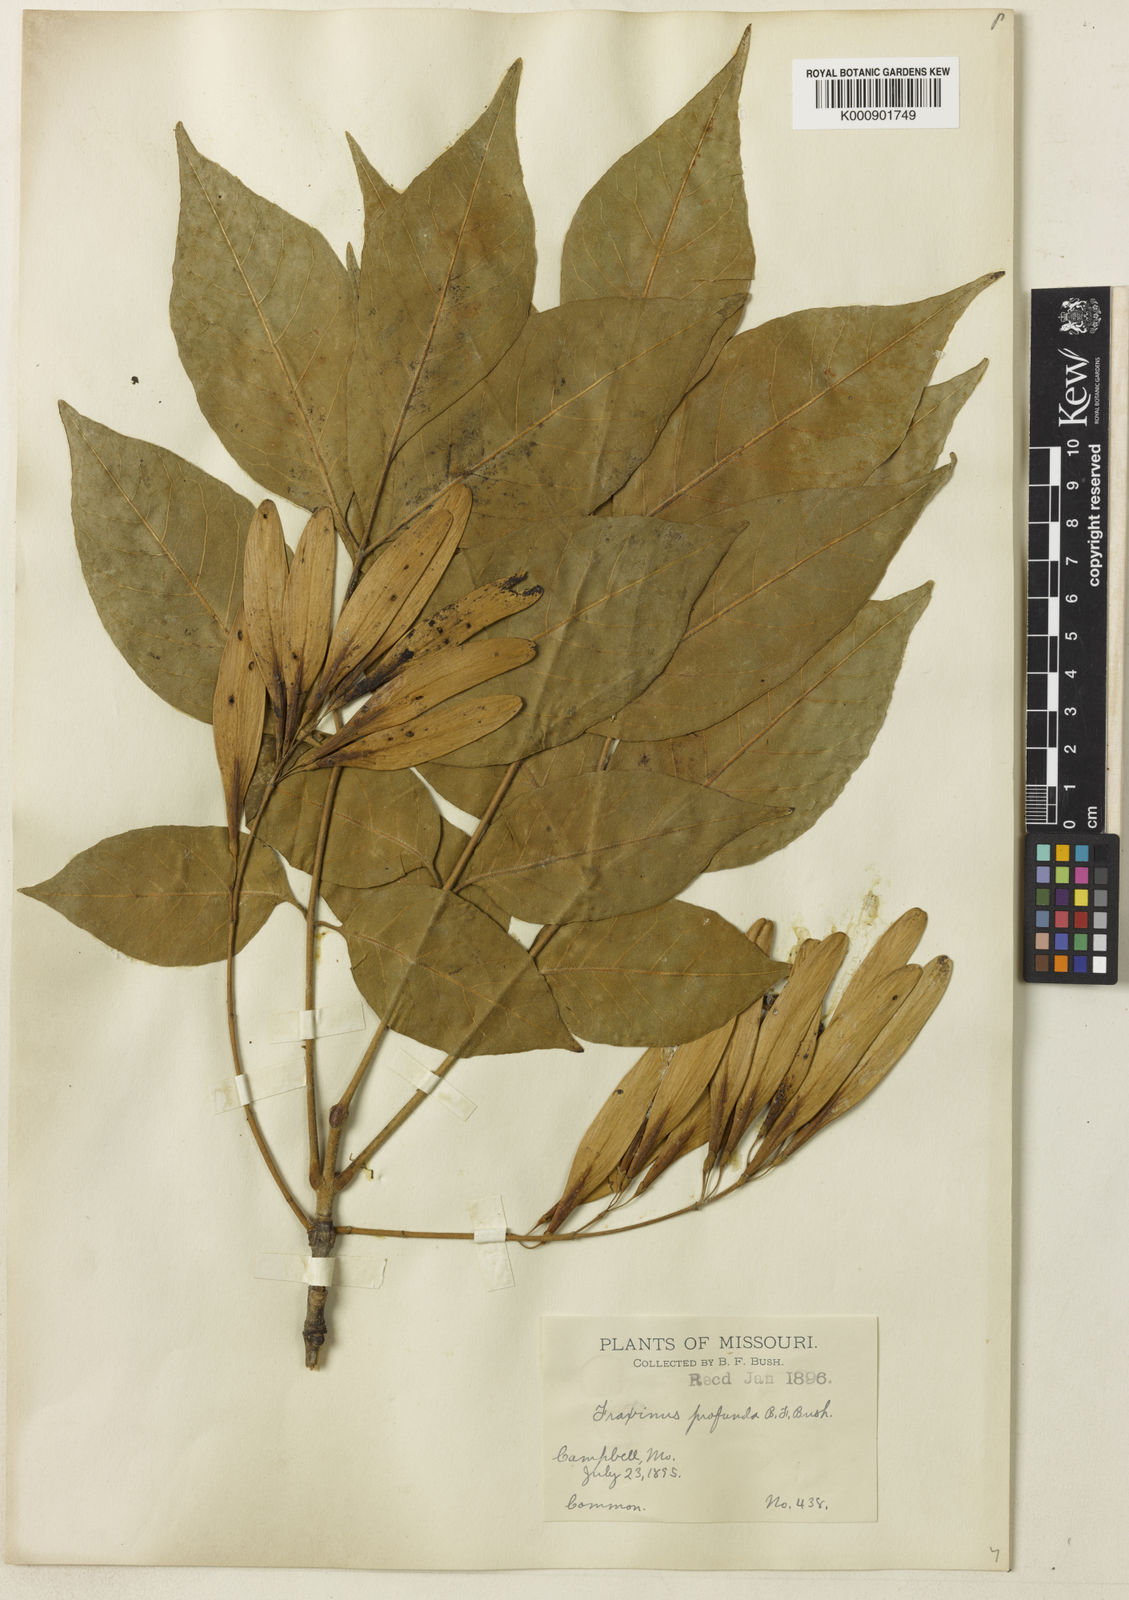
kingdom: Plantae
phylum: Tracheophyta
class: Magnoliopsida
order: Lamiales
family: Oleaceae
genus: Fraxinus
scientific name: Fraxinus
